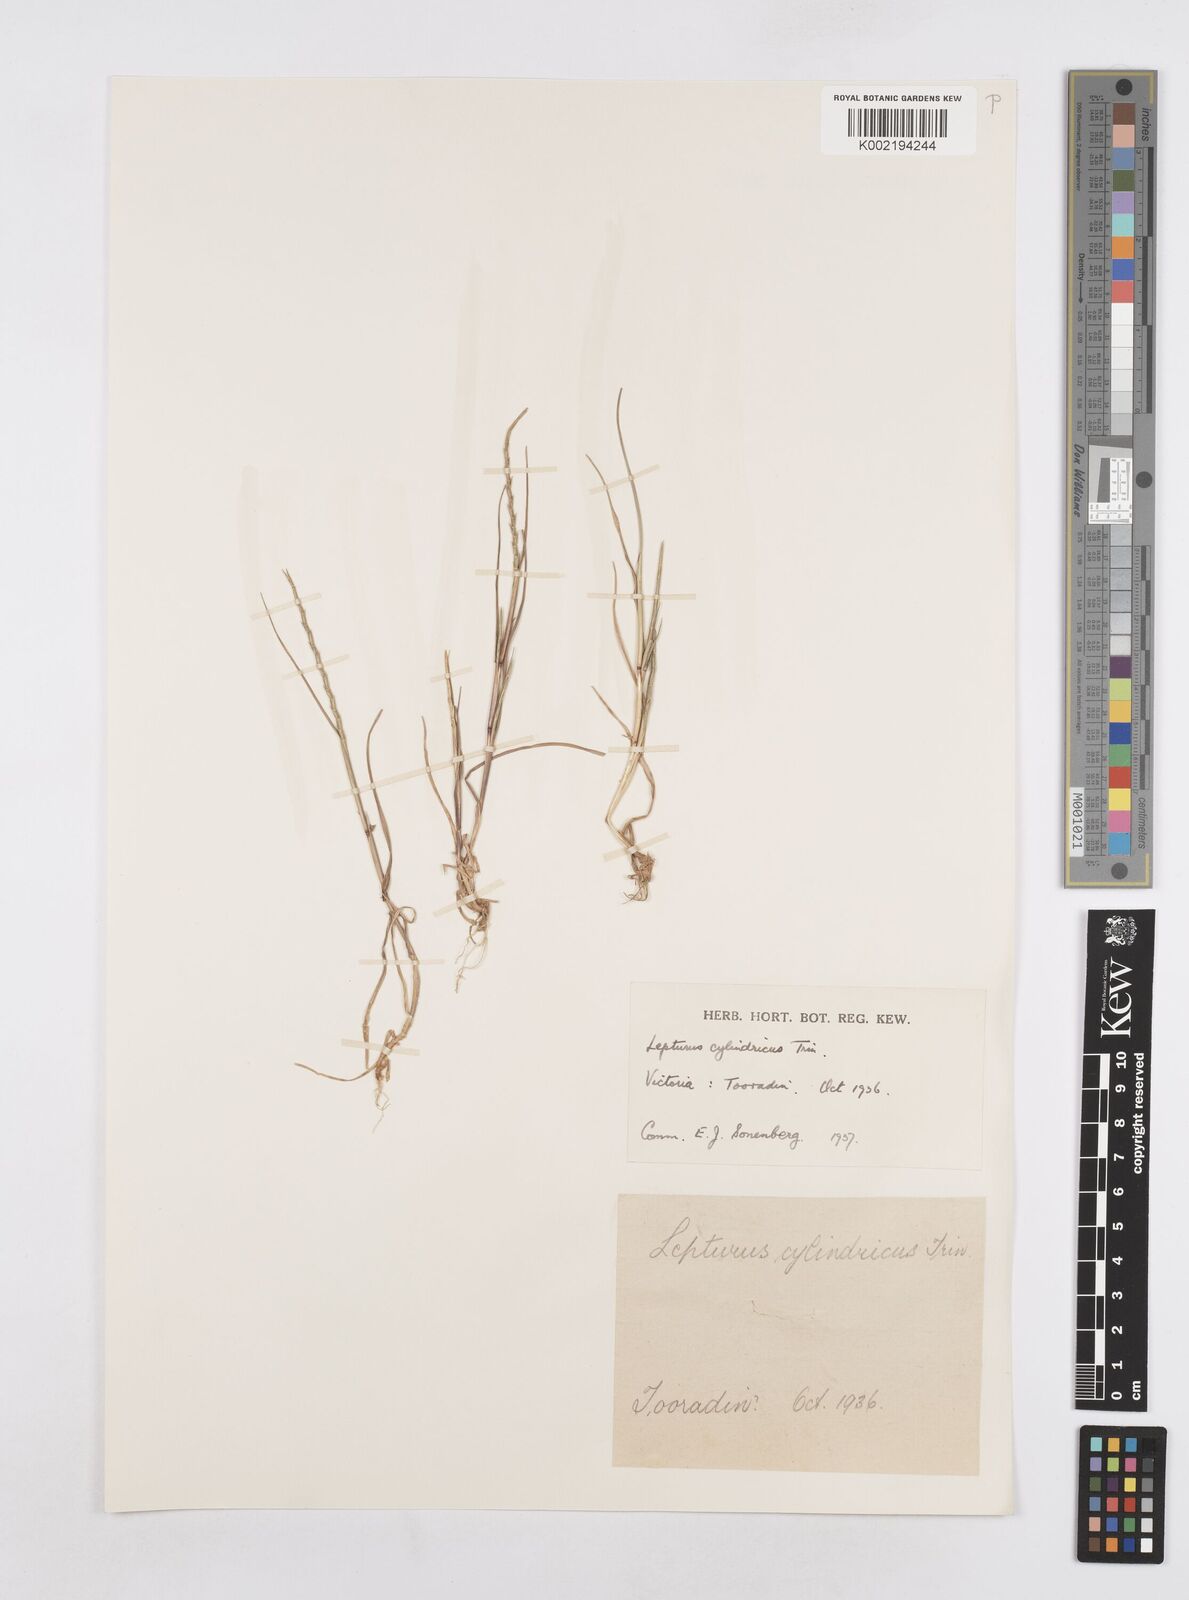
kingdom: Plantae
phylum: Tracheophyta
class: Liliopsida
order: Poales
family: Poaceae
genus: Parapholis
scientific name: Parapholis cylindrica
